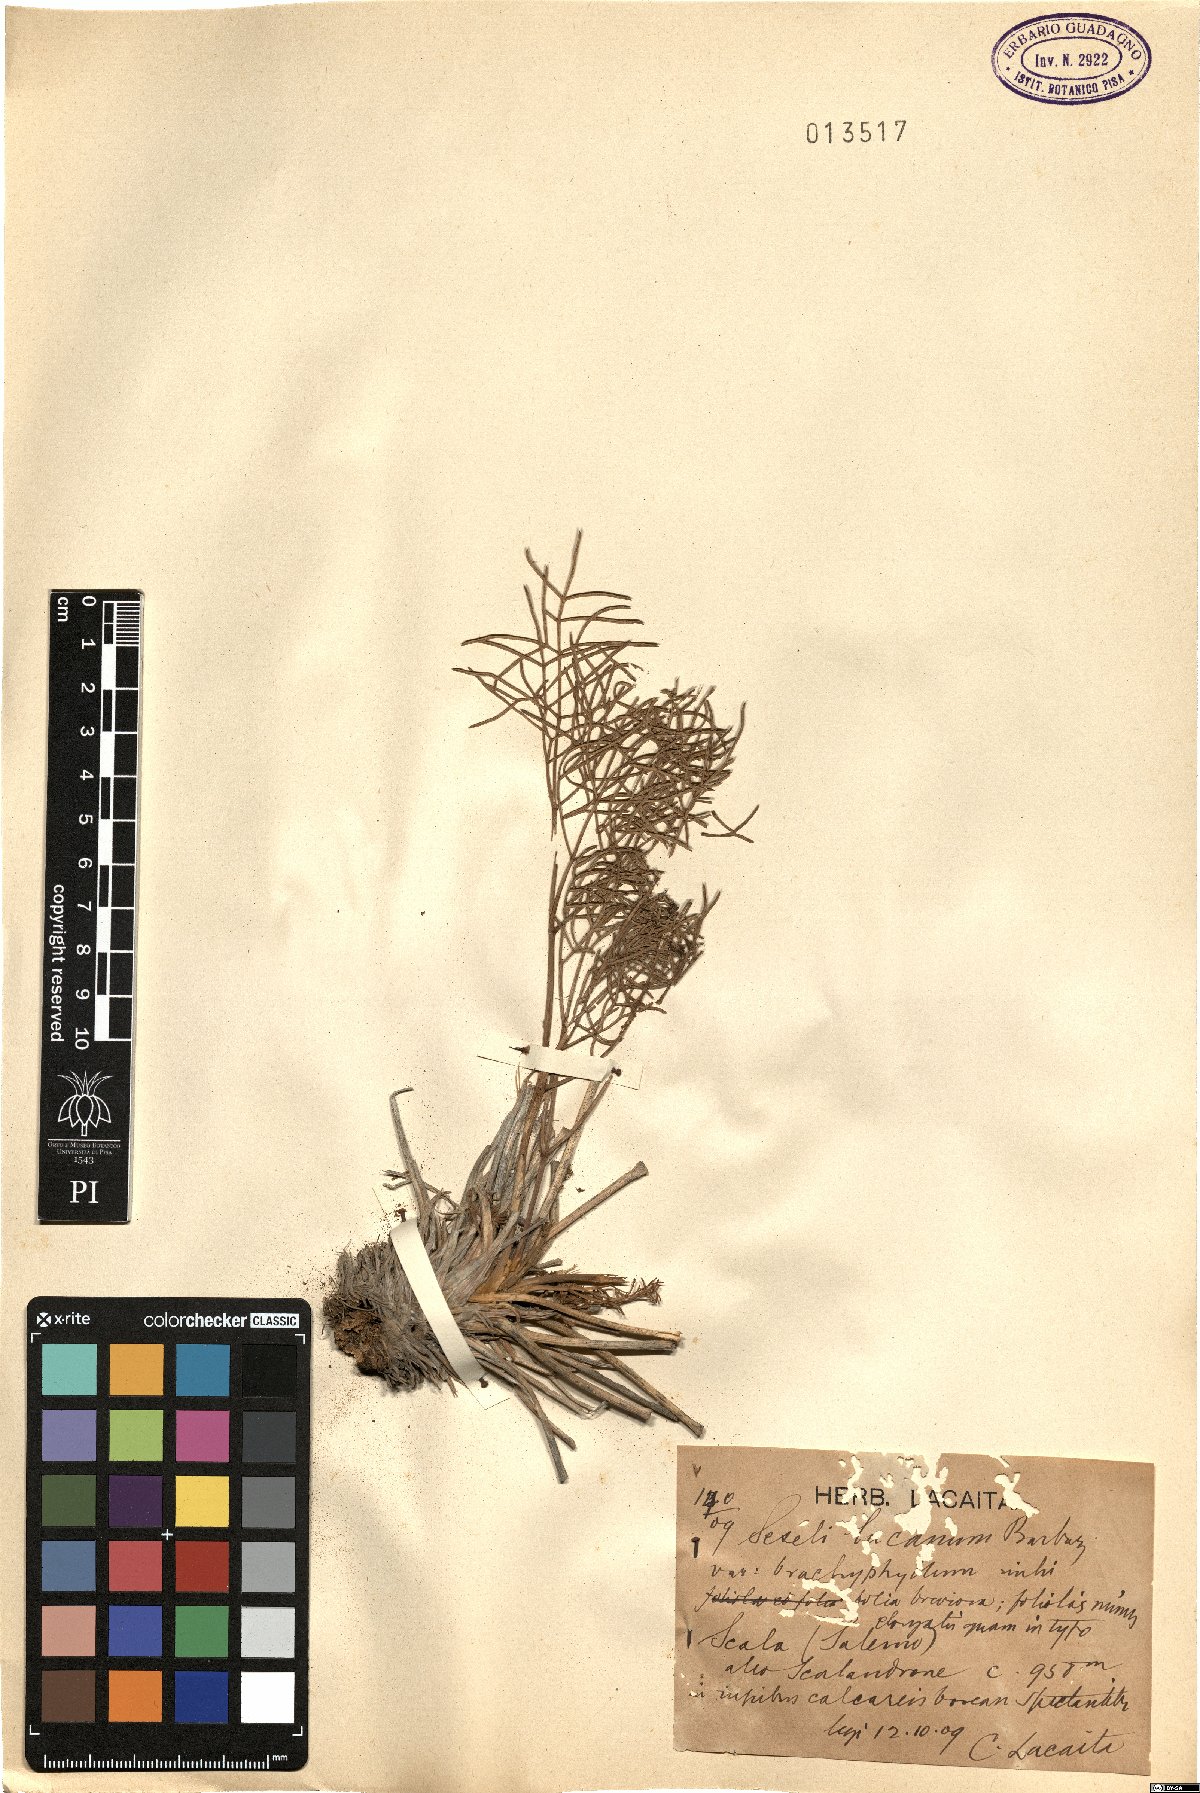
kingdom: Plantae
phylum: Tracheophyta
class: Magnoliopsida
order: Apiales
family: Apiaceae
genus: Athamanta
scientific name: Athamanta ramosissima
